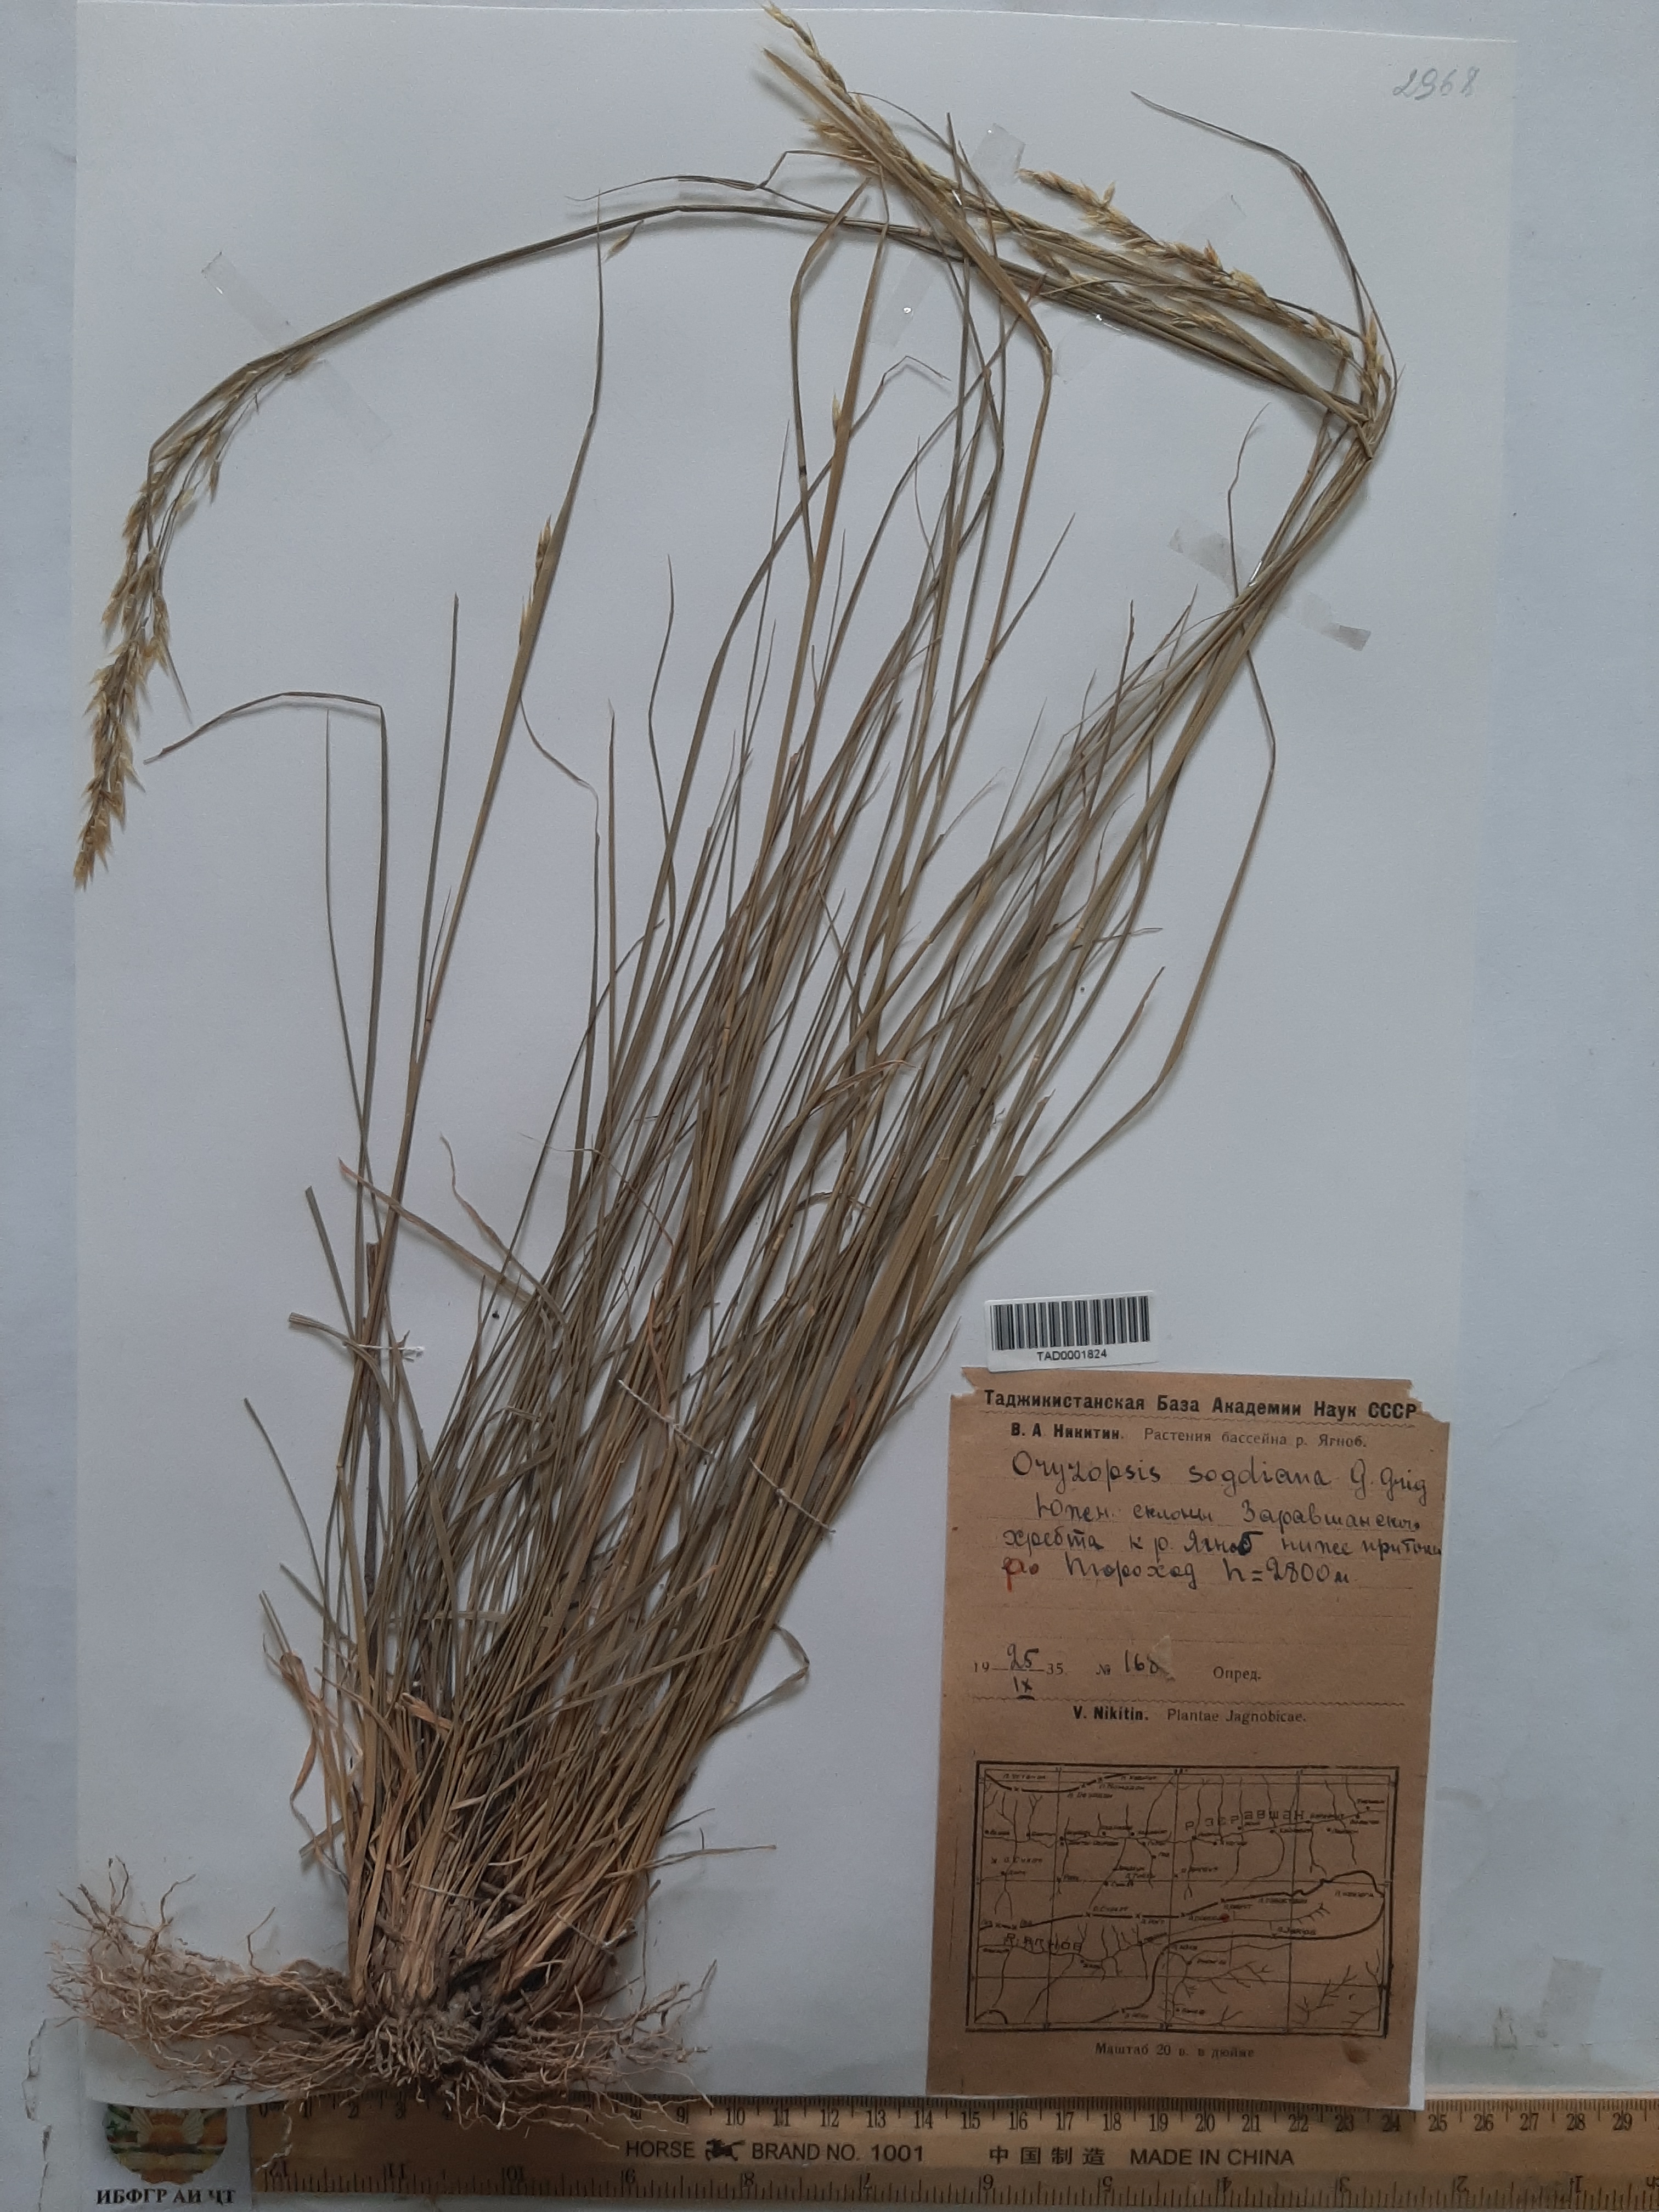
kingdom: Plantae
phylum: Tracheophyta
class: Liliopsida
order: Poales
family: Poaceae
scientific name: Poaceae
